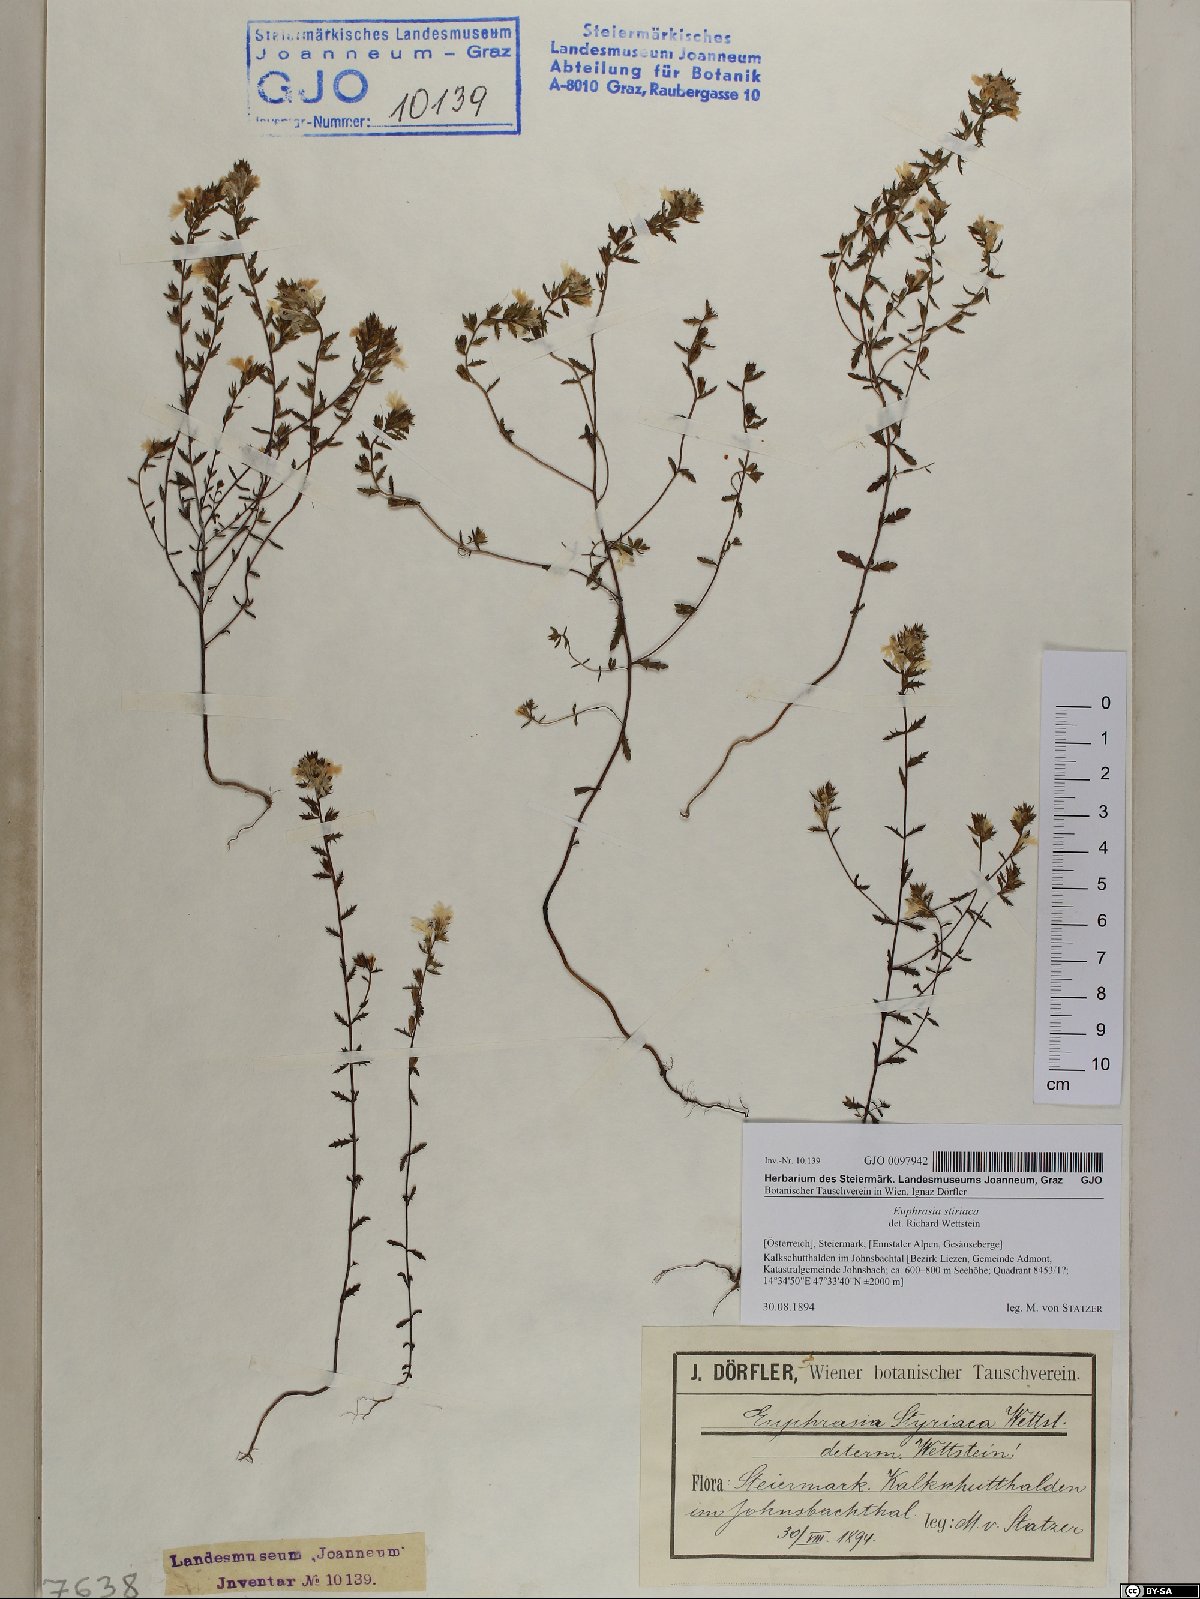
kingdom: Plantae
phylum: Tracheophyta
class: Magnoliopsida
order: Lamiales
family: Orobanchaceae
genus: Euphrasia
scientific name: Euphrasia cuspidata
